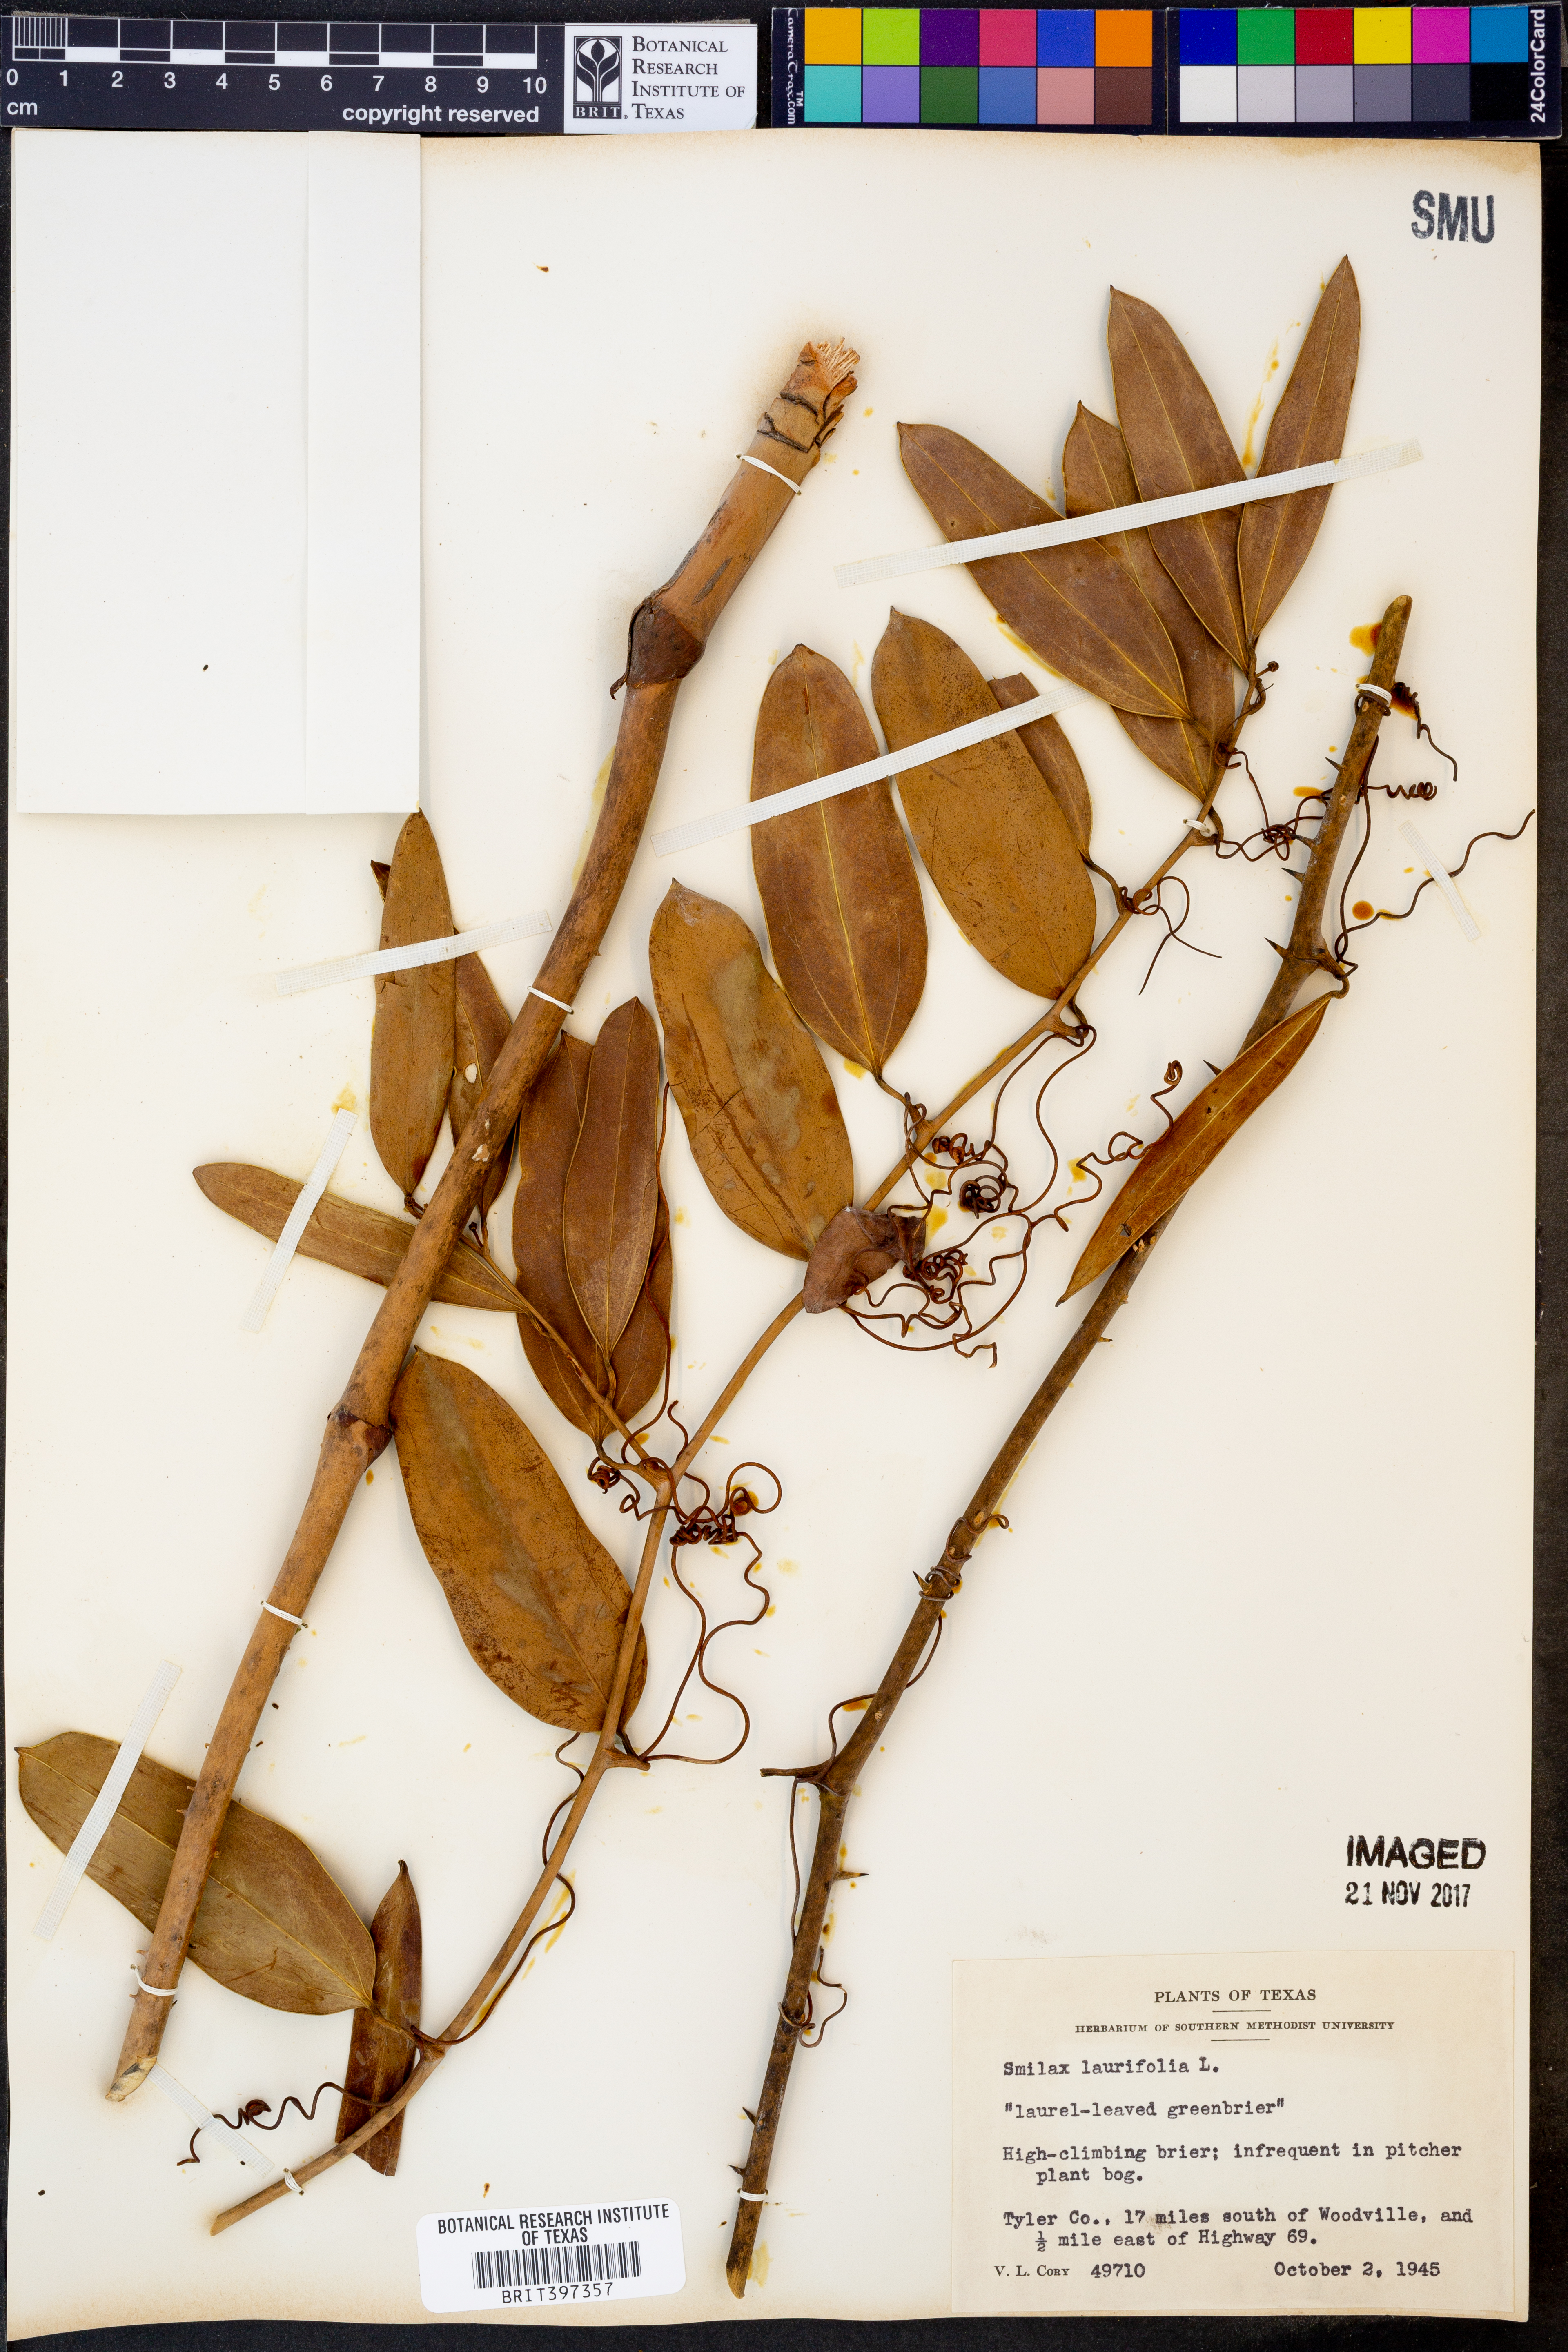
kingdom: Plantae
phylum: Tracheophyta
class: Liliopsida
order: Liliales
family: Smilacaceae
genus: Smilax
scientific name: Smilax laurifolia
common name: Bamboovine
